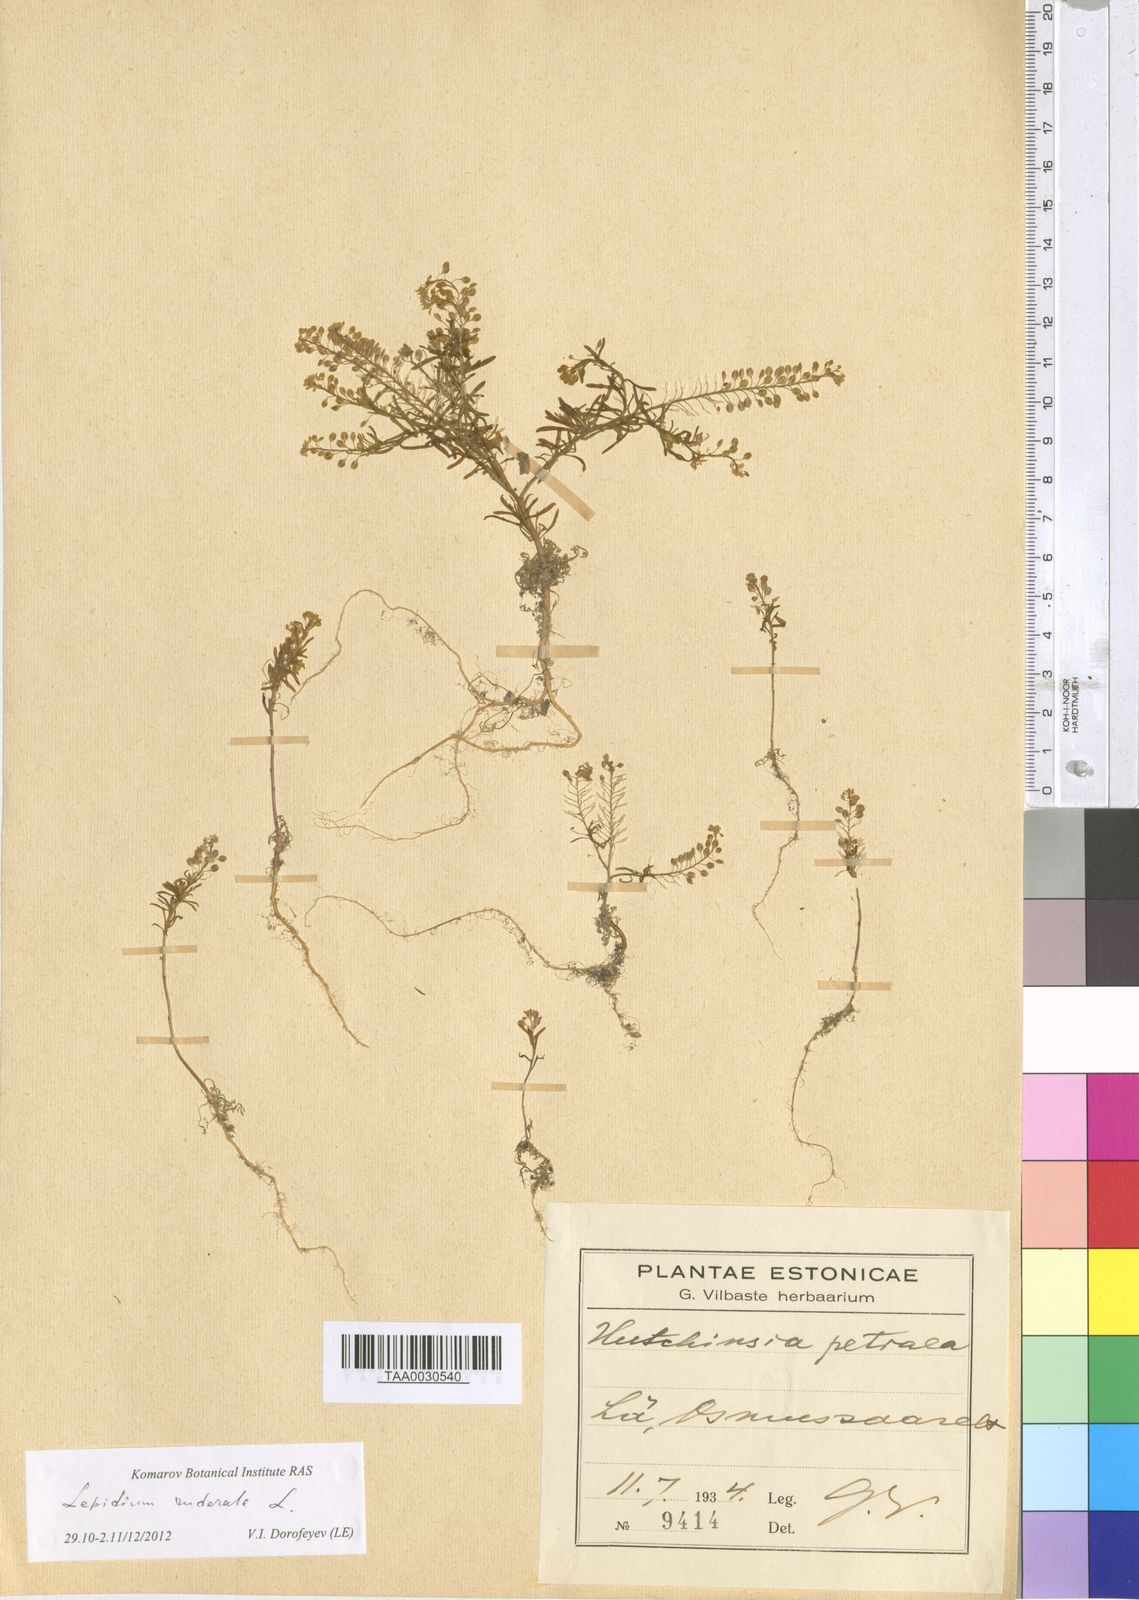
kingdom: Plantae
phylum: Tracheophyta
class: Magnoliopsida
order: Brassicales
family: Brassicaceae
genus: Lepidium
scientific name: Lepidium ruderale
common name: Narrow-leaved pepperwort
